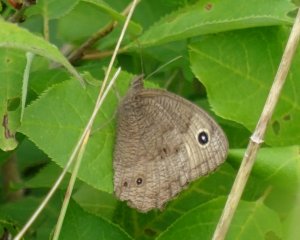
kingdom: Animalia
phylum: Arthropoda
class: Insecta
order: Lepidoptera
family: Nymphalidae
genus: Cercyonis
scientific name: Cercyonis pegala
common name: Common Wood-Nymph
